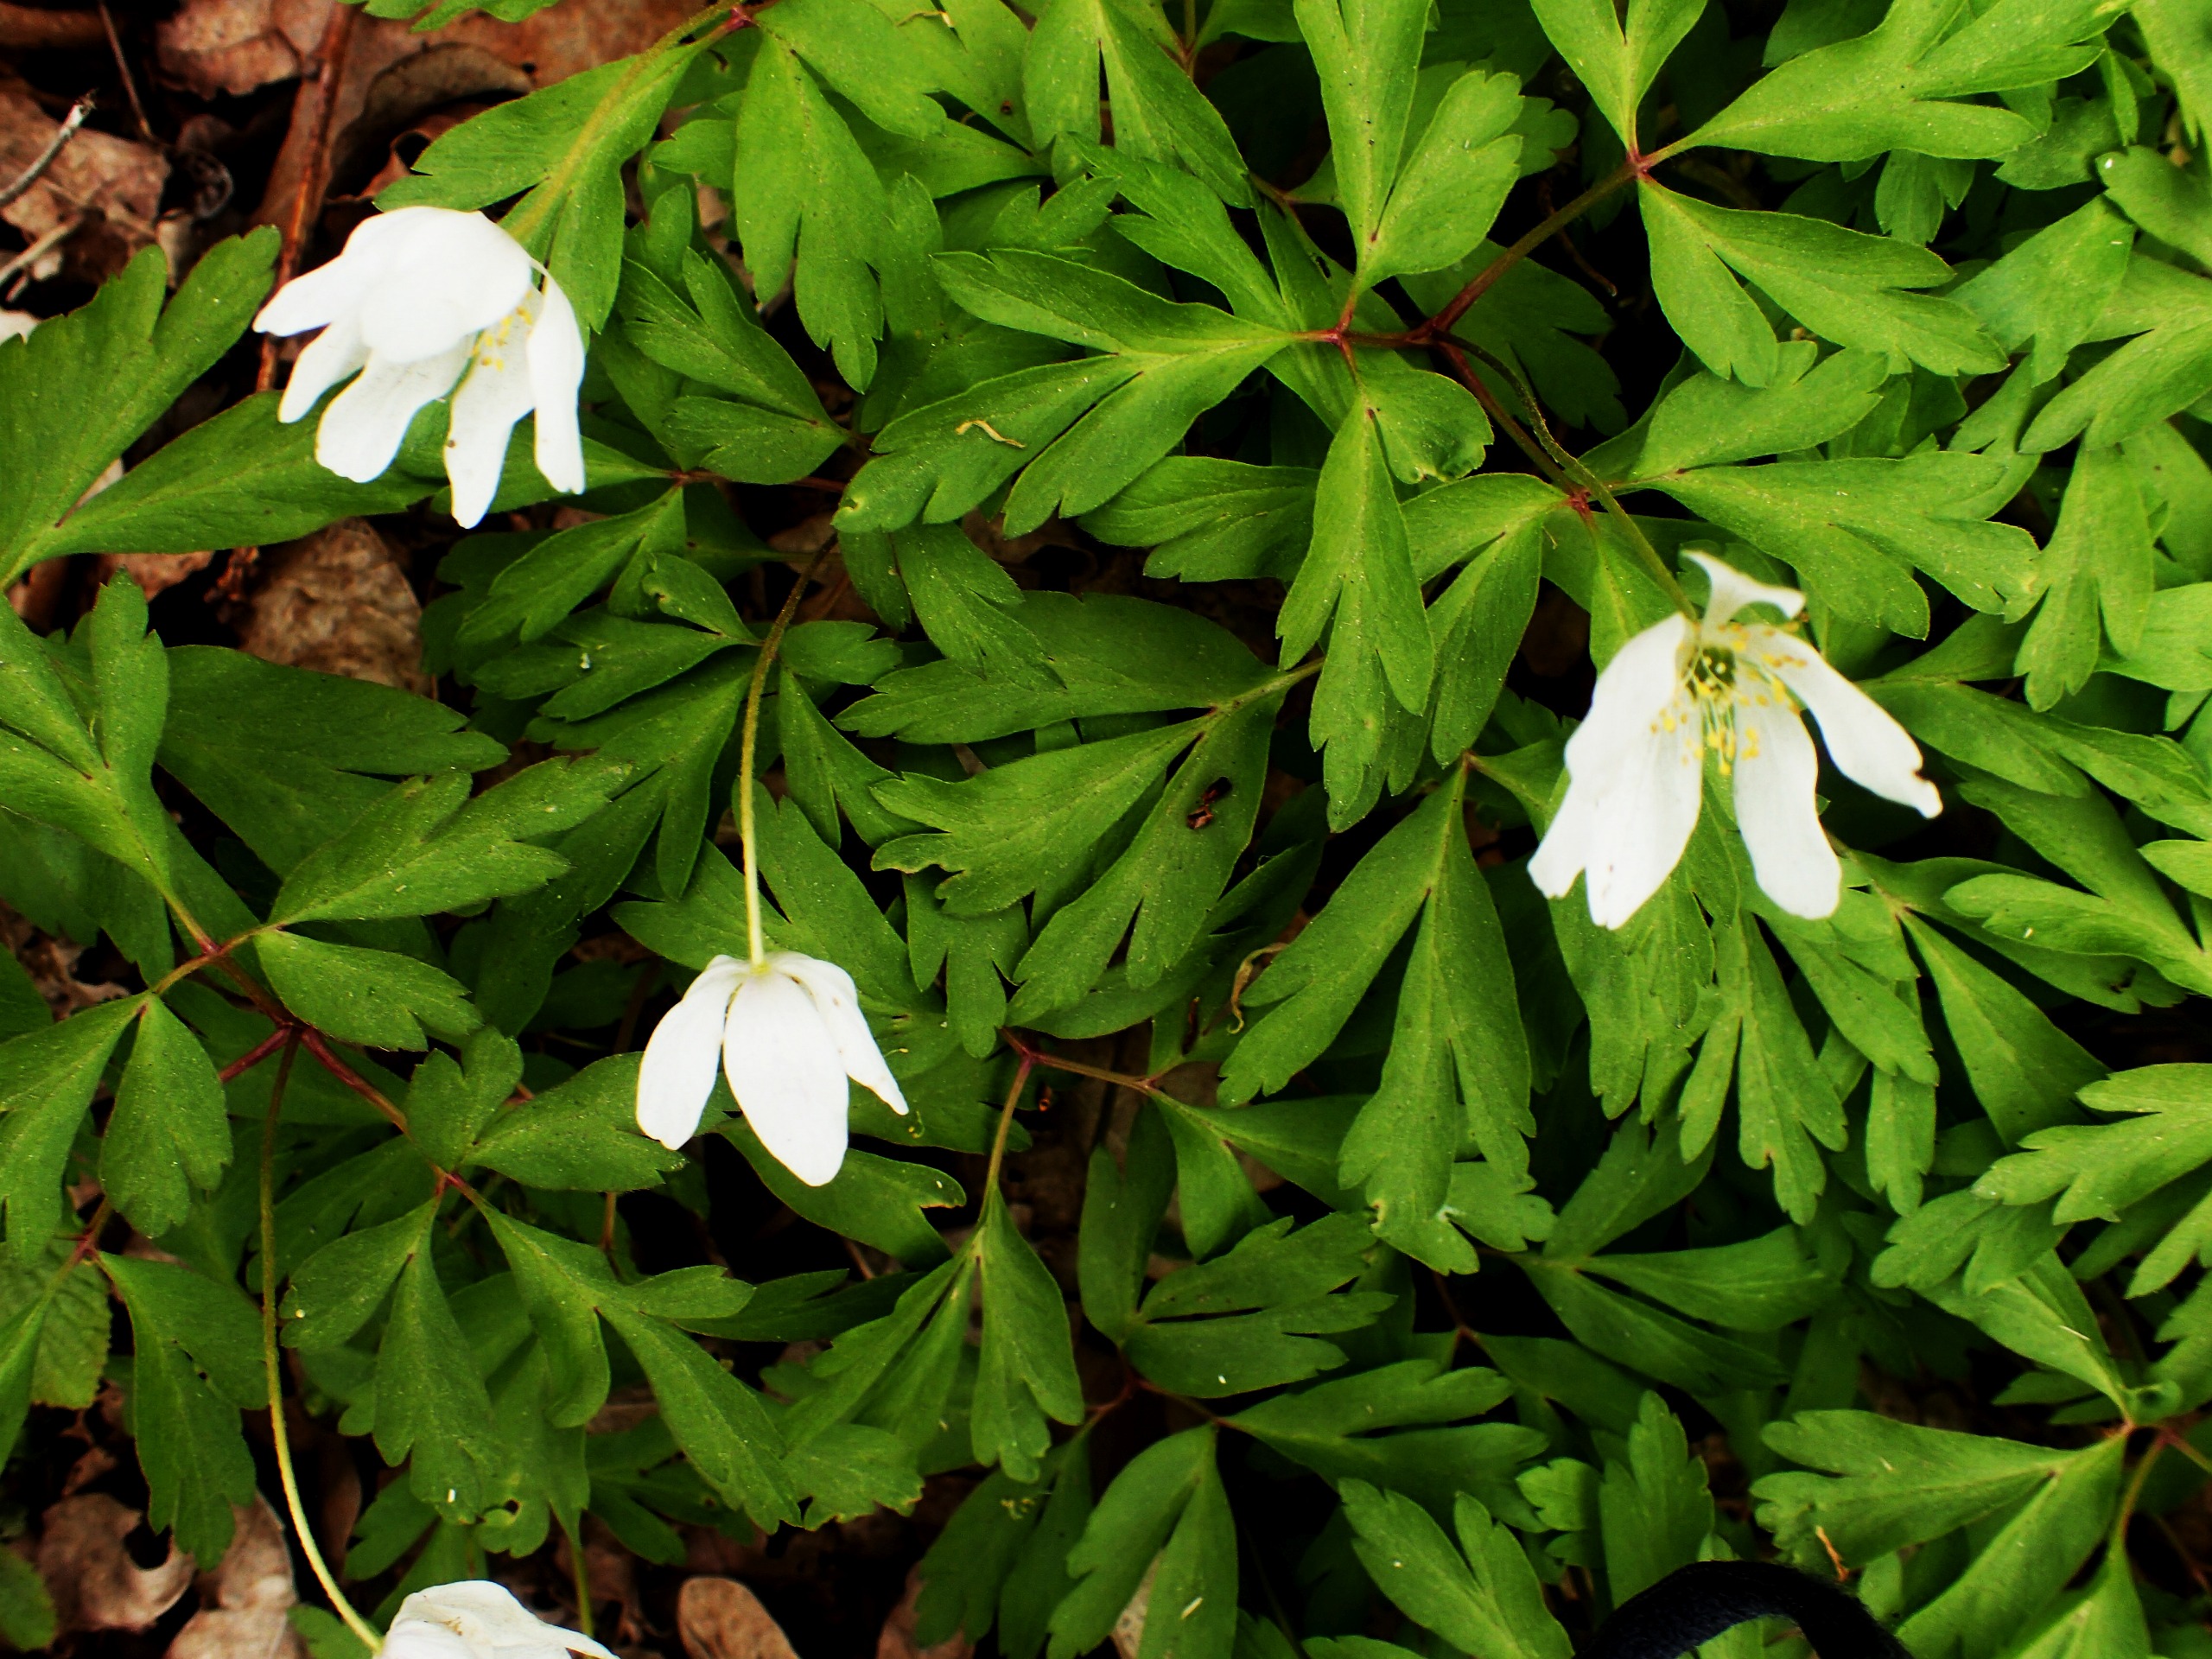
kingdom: Plantae
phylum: Tracheophyta
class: Magnoliopsida
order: Ranunculales
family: Ranunculaceae
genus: Anemone
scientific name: Anemone nemorosa
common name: Hvid anemone
